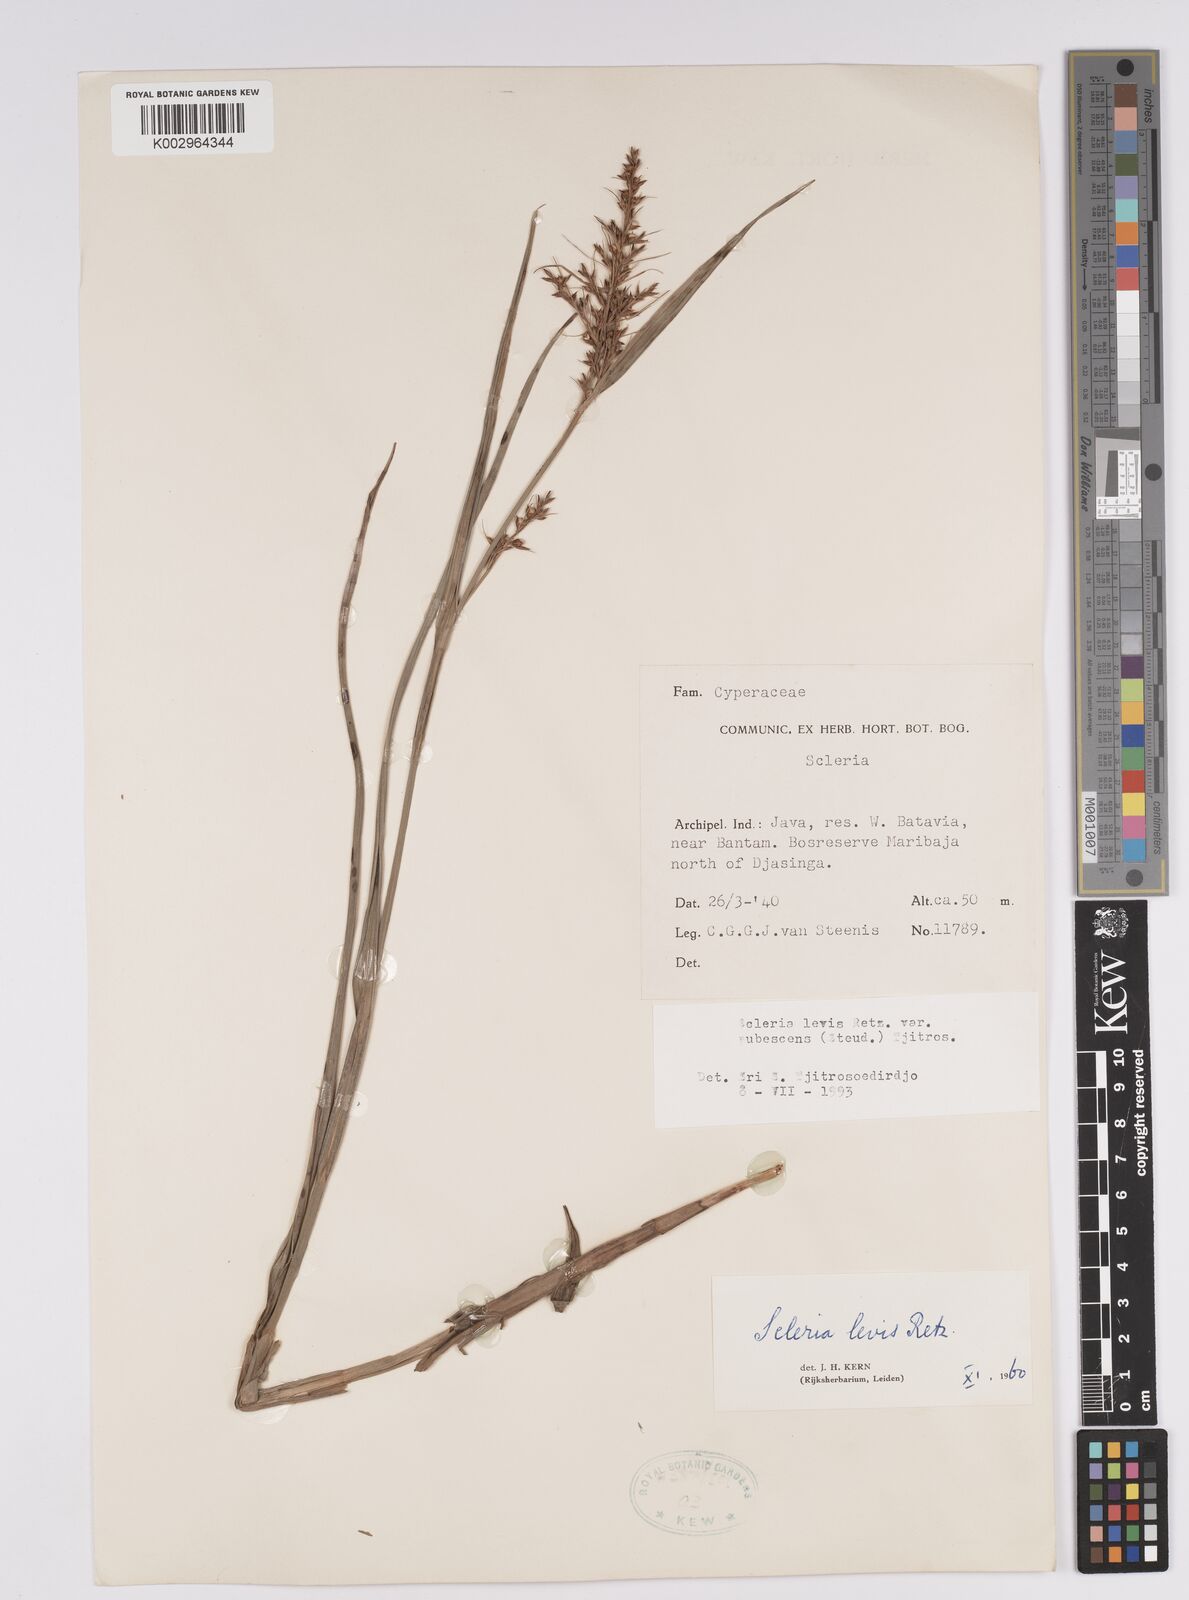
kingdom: Plantae
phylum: Tracheophyta
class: Liliopsida
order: Poales
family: Cyperaceae
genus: Scleria
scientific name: Scleria levis
